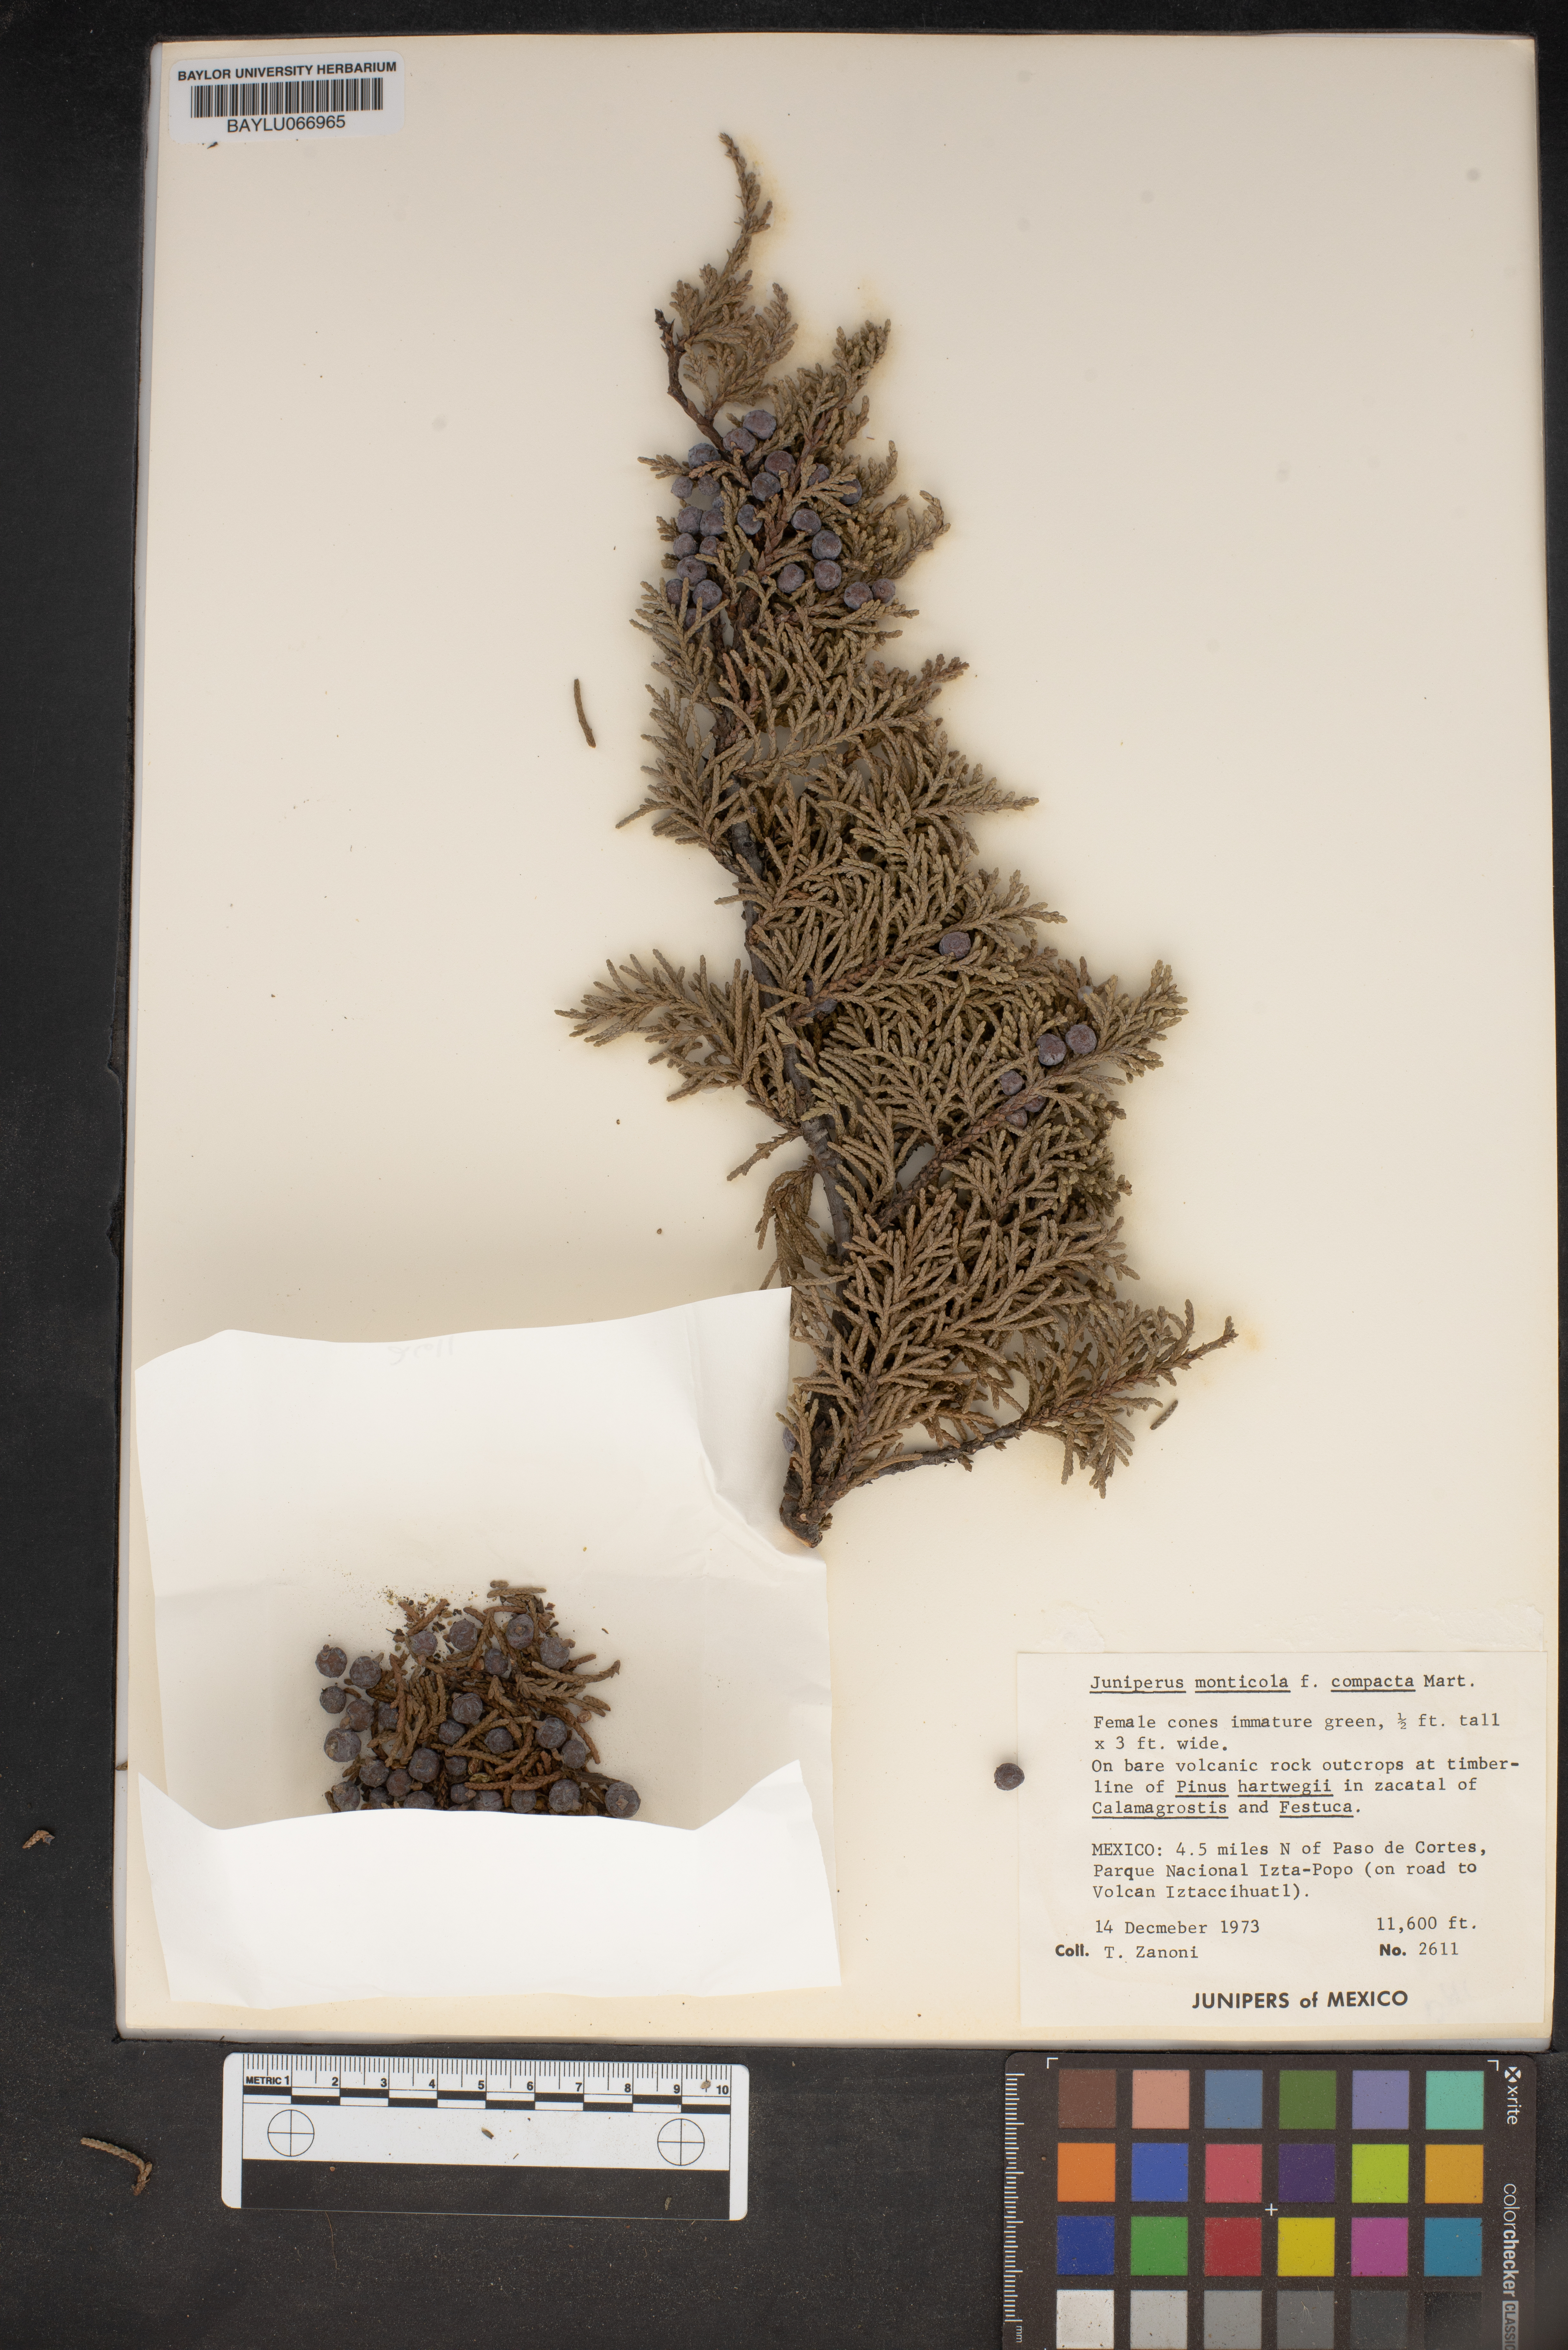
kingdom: Plantae
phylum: Tracheophyta
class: Pinopsida
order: Pinales
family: Cupressaceae
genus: Juniperus
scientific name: Juniperus monticola
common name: Mexican juniper
